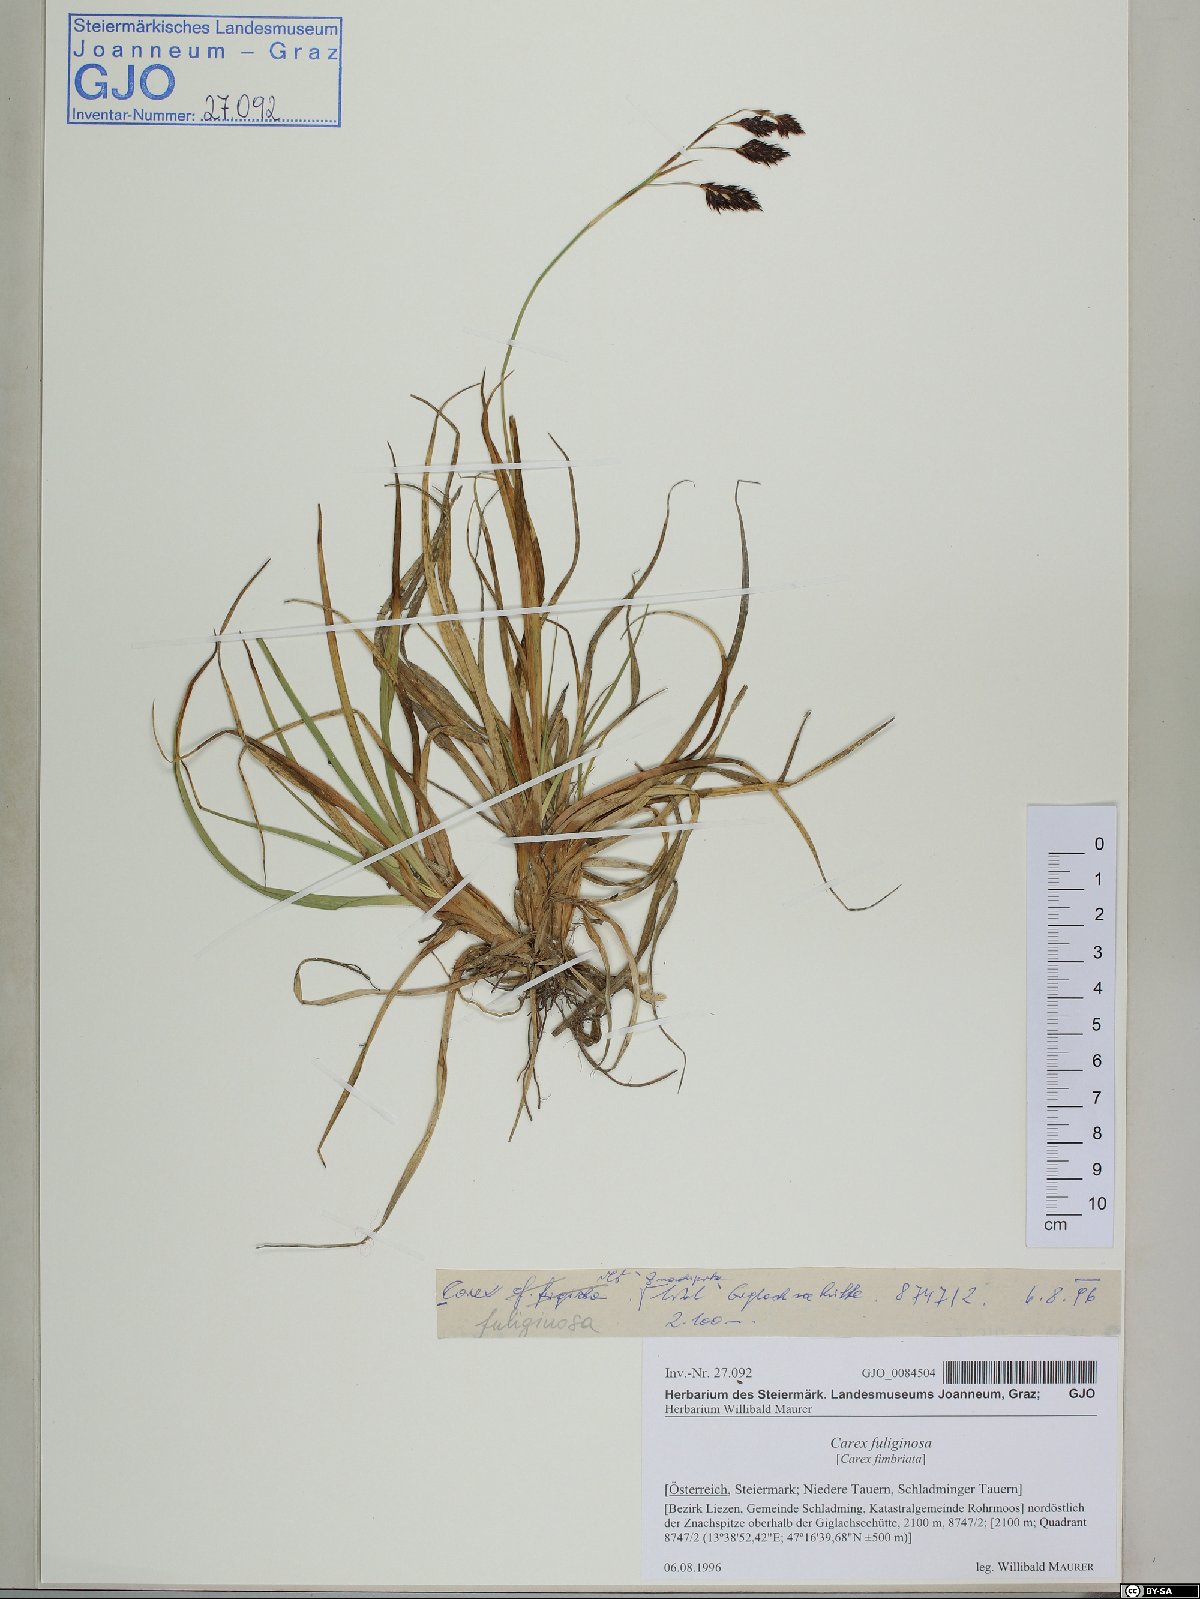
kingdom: Plantae
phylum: Tracheophyta
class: Liliopsida
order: Poales
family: Cyperaceae
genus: Carex
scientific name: Carex fuliginosa
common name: Few-flowered sedge
